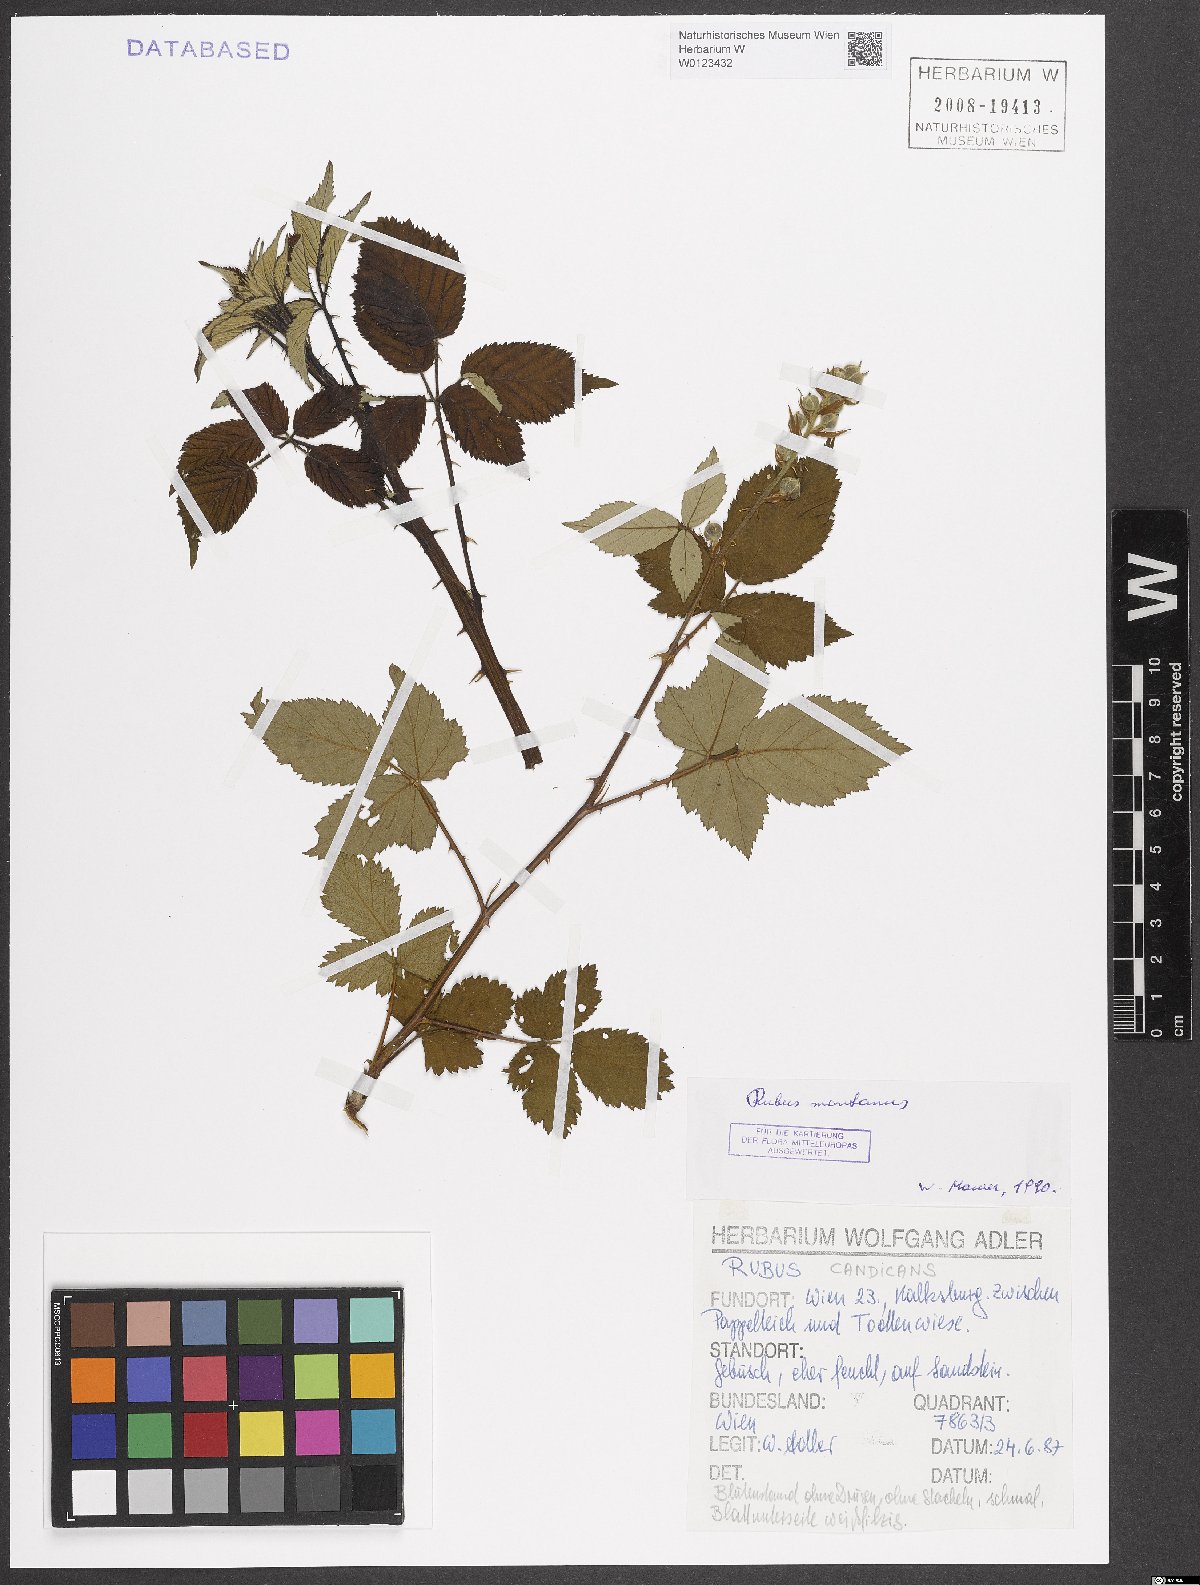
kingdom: Plantae
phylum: Tracheophyta
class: Magnoliopsida
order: Rosales
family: Rosaceae
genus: Rubus
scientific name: Rubus montanus
